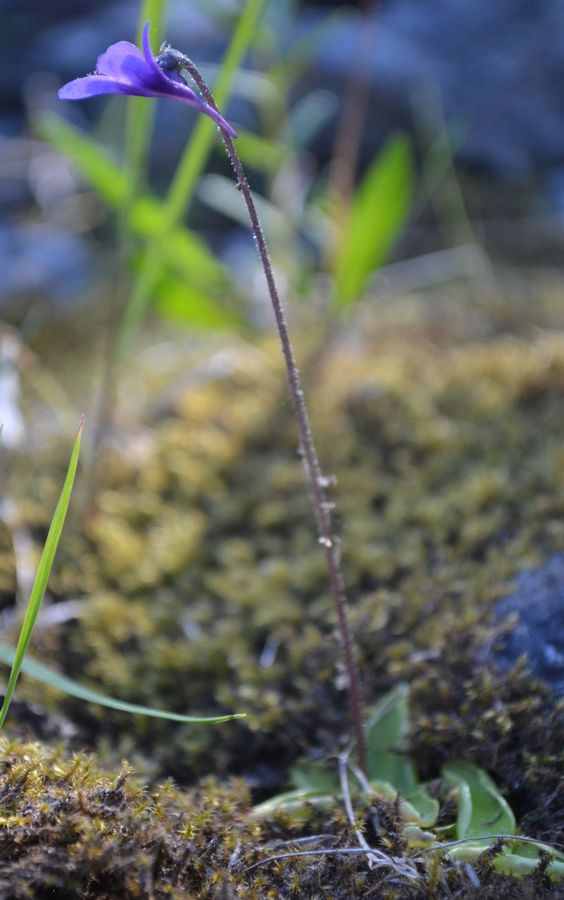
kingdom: Plantae
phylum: Tracheophyta
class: Magnoliopsida
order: Lamiales
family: Lentibulariaceae
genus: Pinguicula
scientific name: Pinguicula vulgaris
